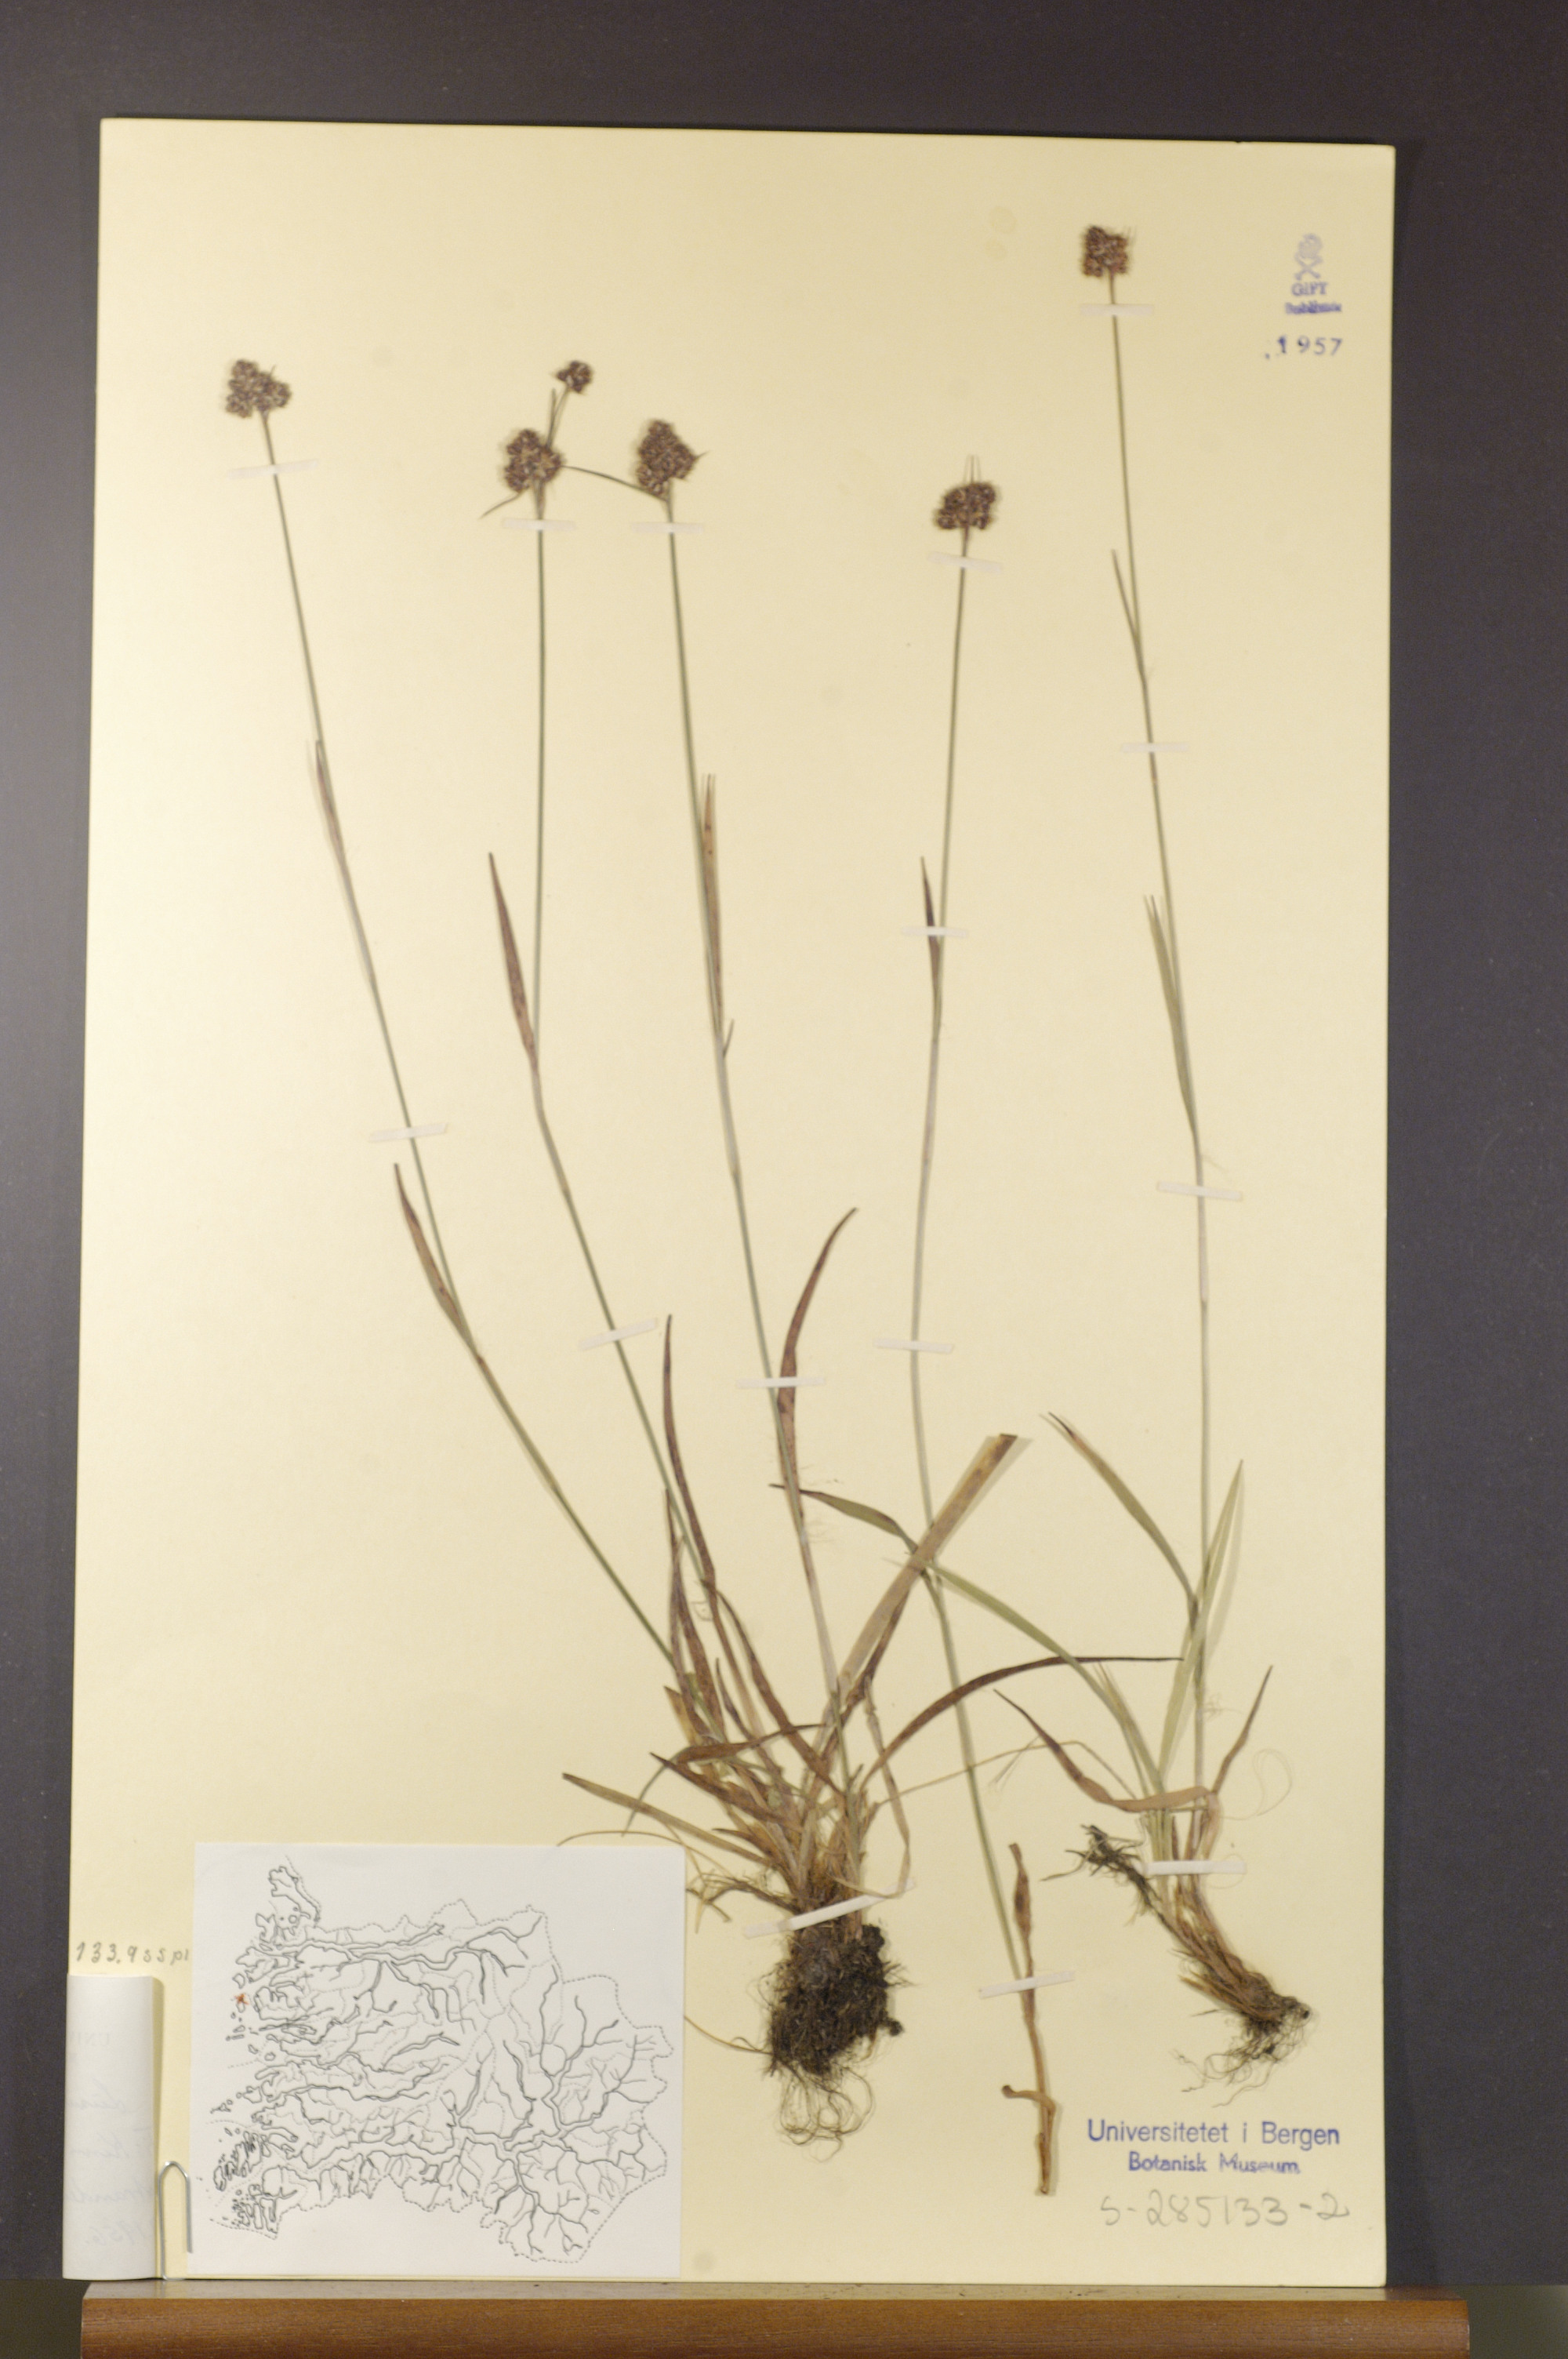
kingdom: Plantae
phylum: Tracheophyta
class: Liliopsida
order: Poales
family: Juncaceae
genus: Luzula
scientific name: Luzula congesta
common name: Heath woodrush
